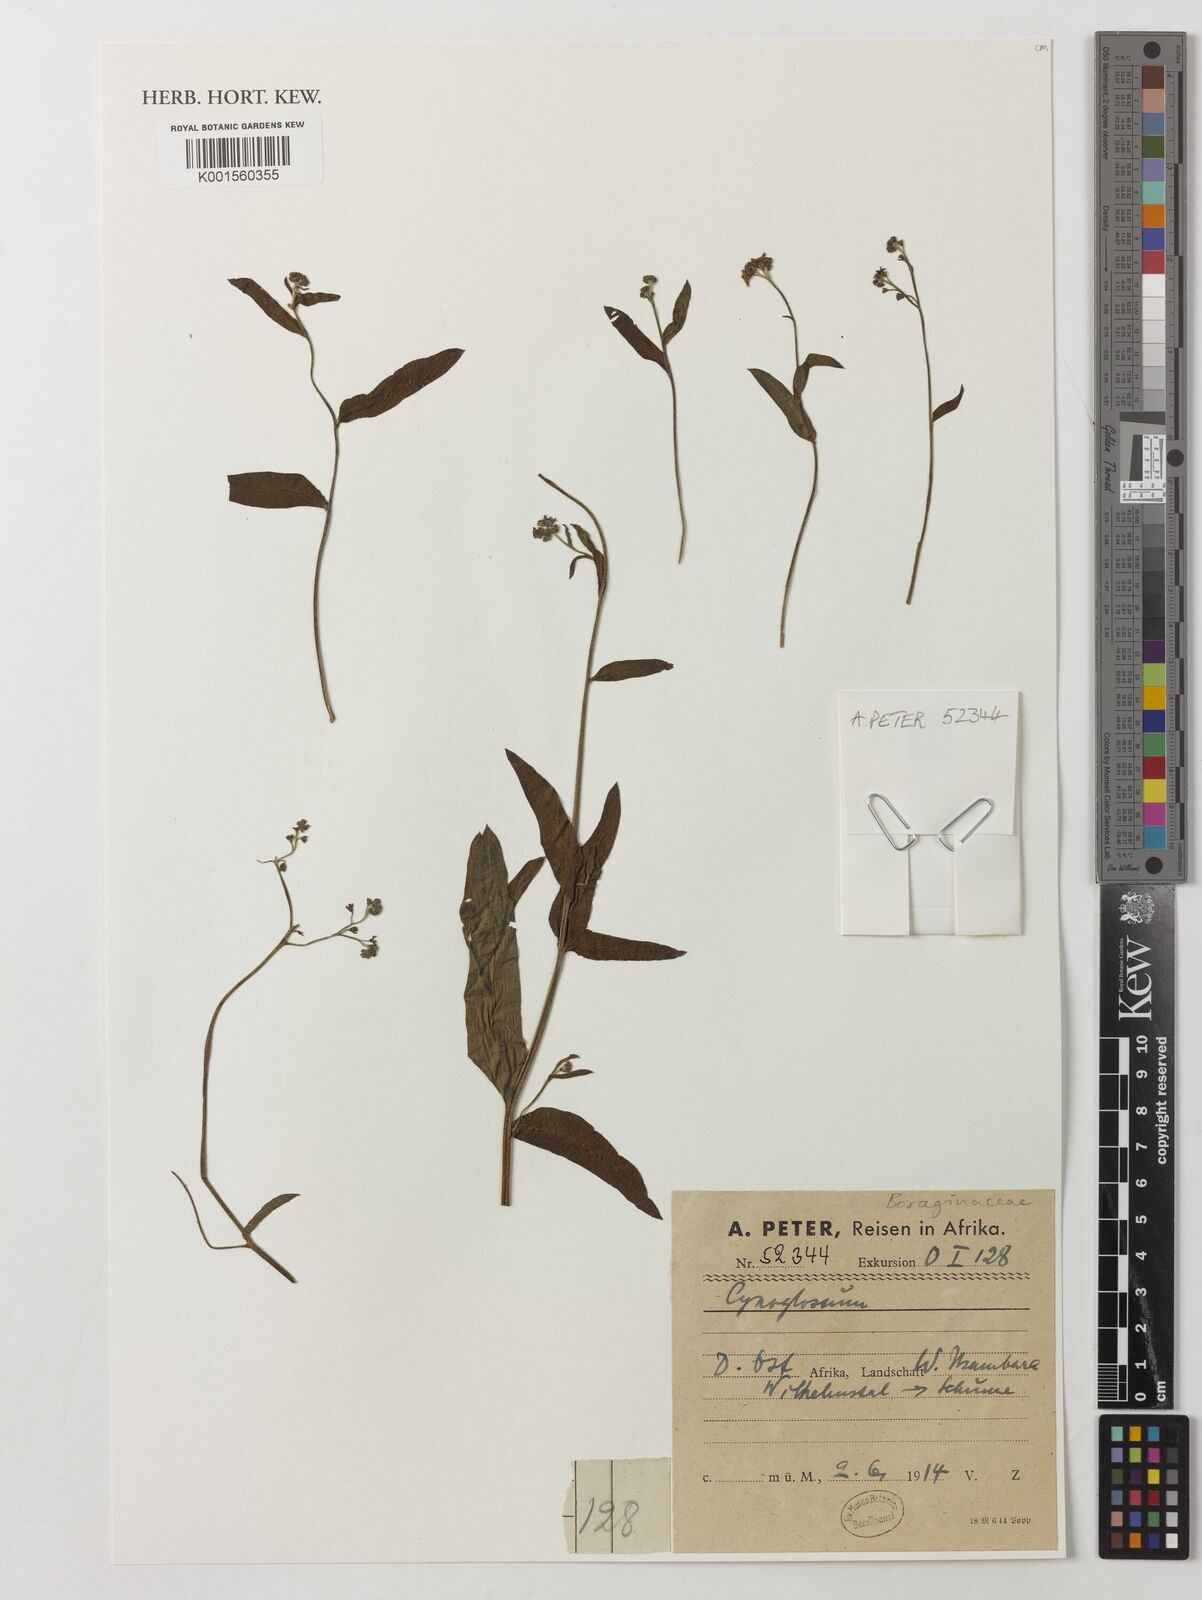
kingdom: Plantae
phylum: Tracheophyta
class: Magnoliopsida
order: Boraginales
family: Boraginaceae
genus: Cynoglossum
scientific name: Cynoglossum
